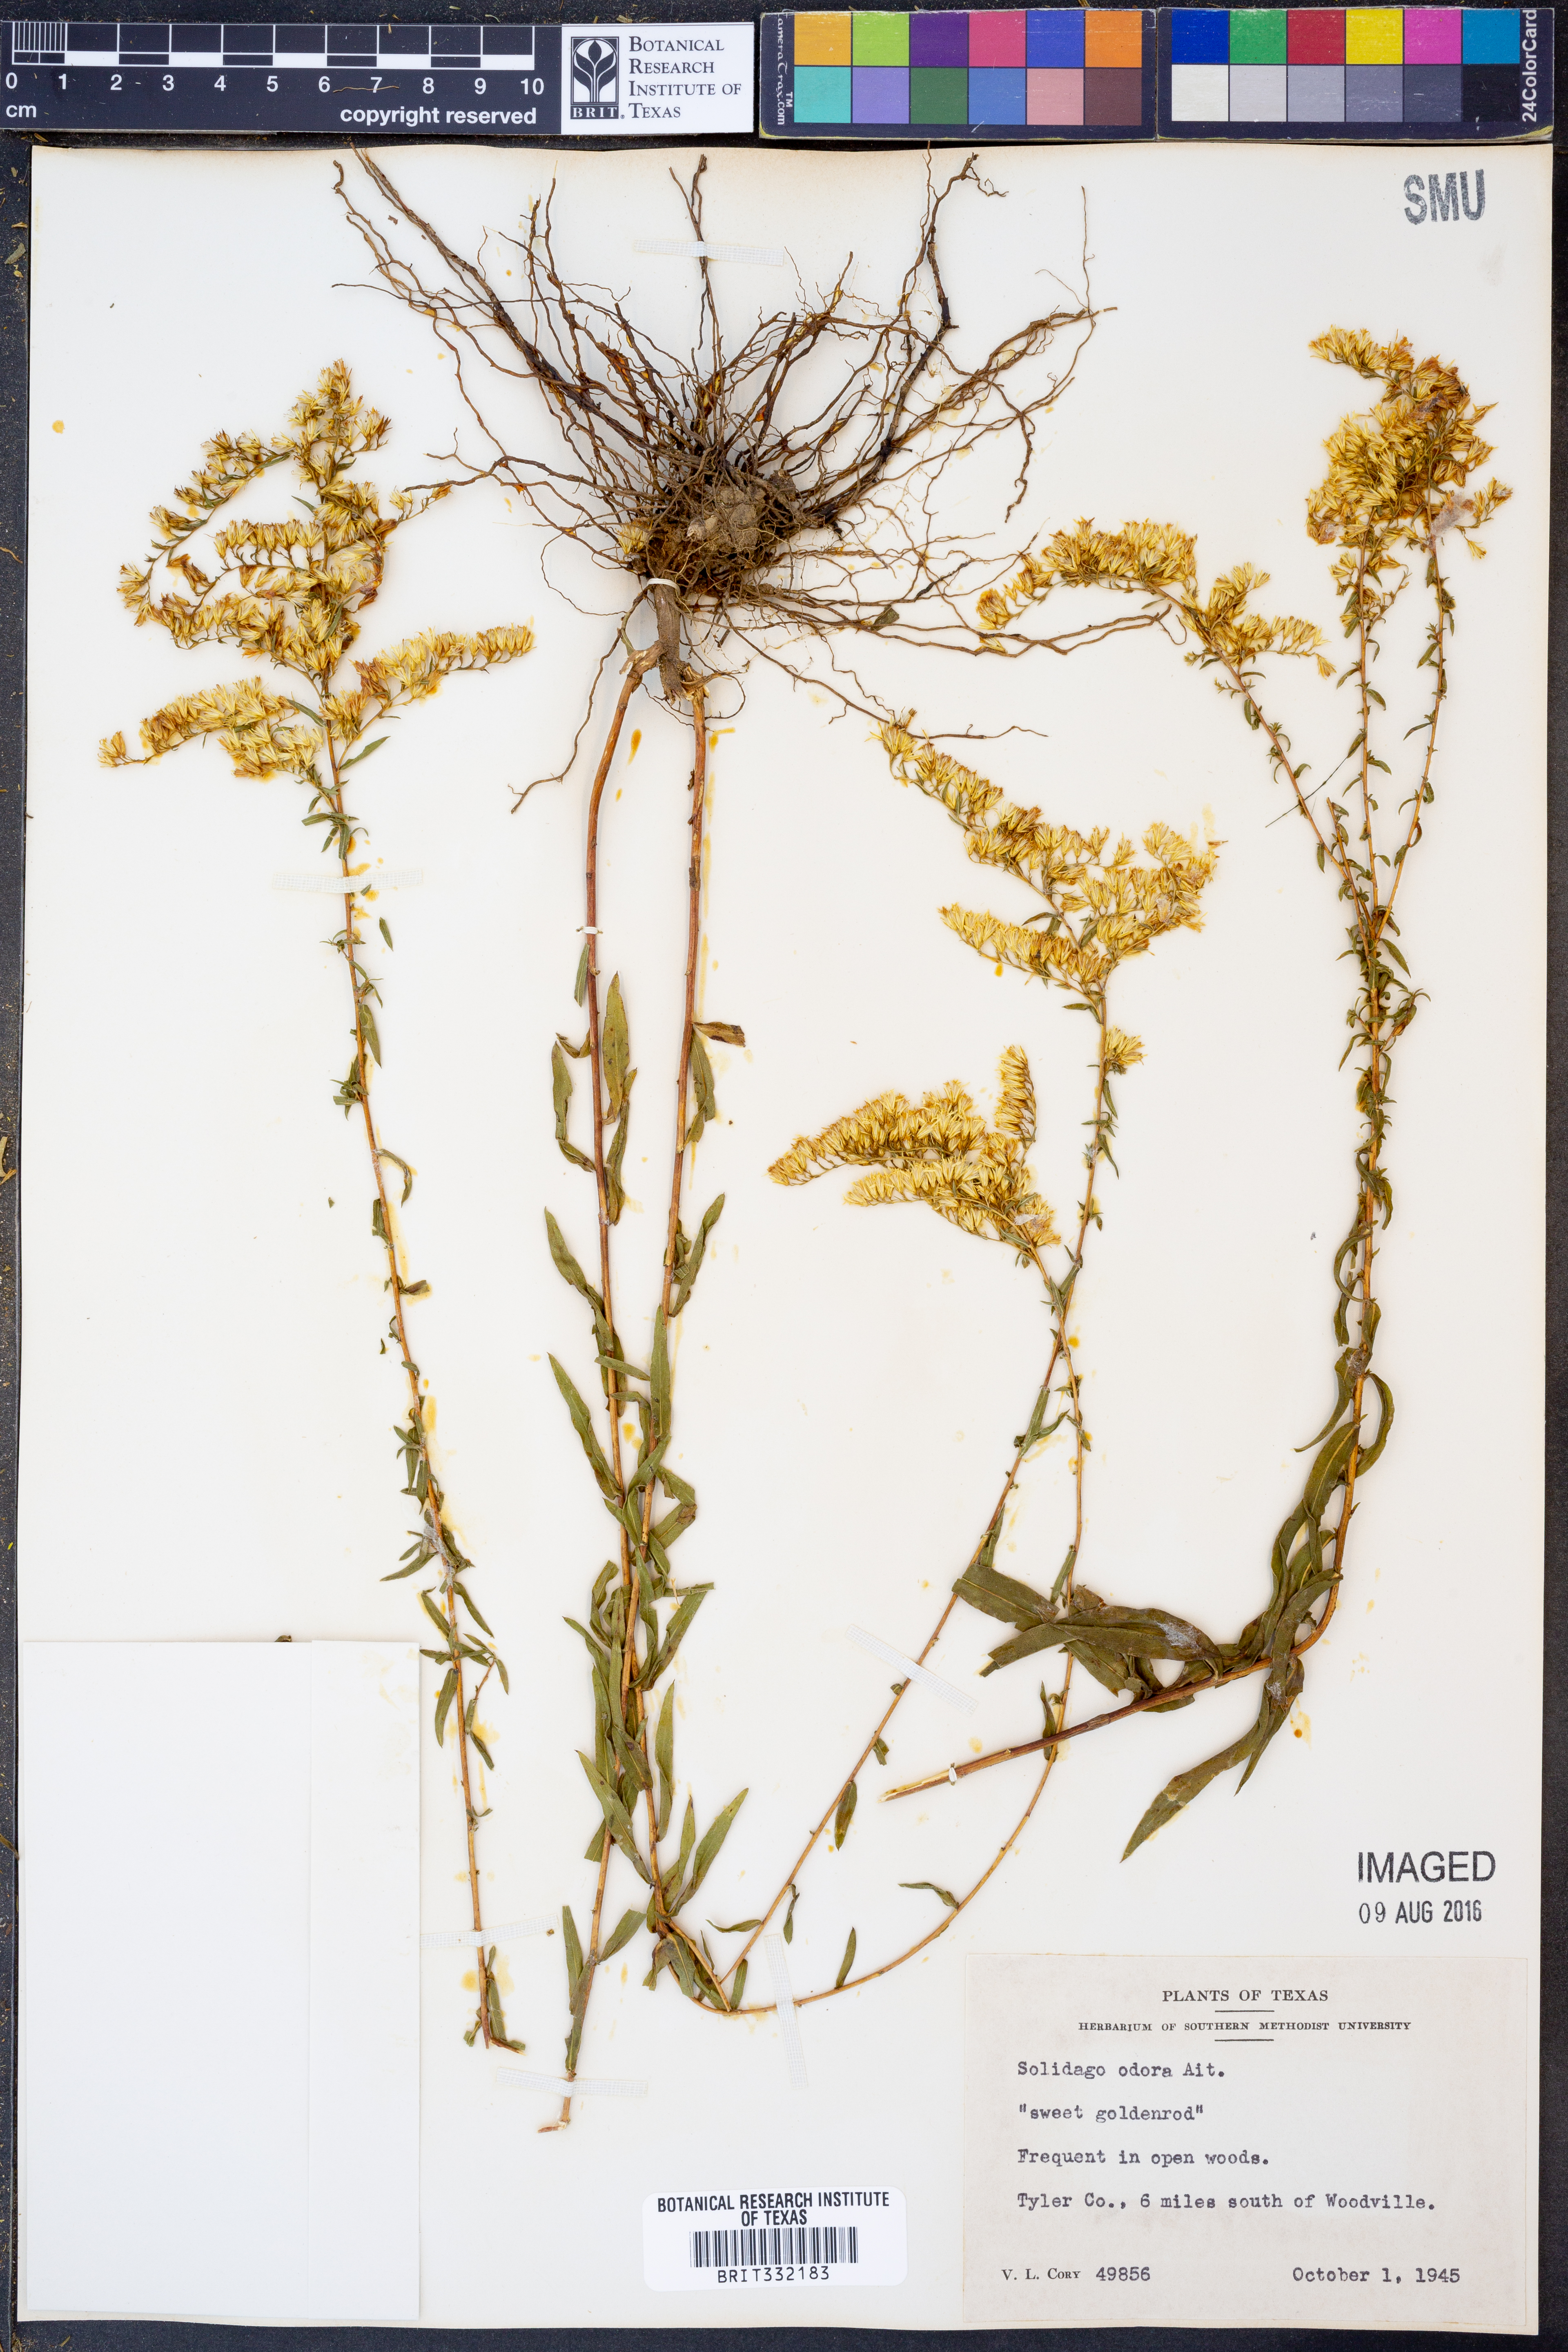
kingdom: Plantae
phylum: Tracheophyta
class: Magnoliopsida
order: Asterales
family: Asteraceae
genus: Solidago
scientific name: Solidago odora
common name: Anise-scented goldenrod
